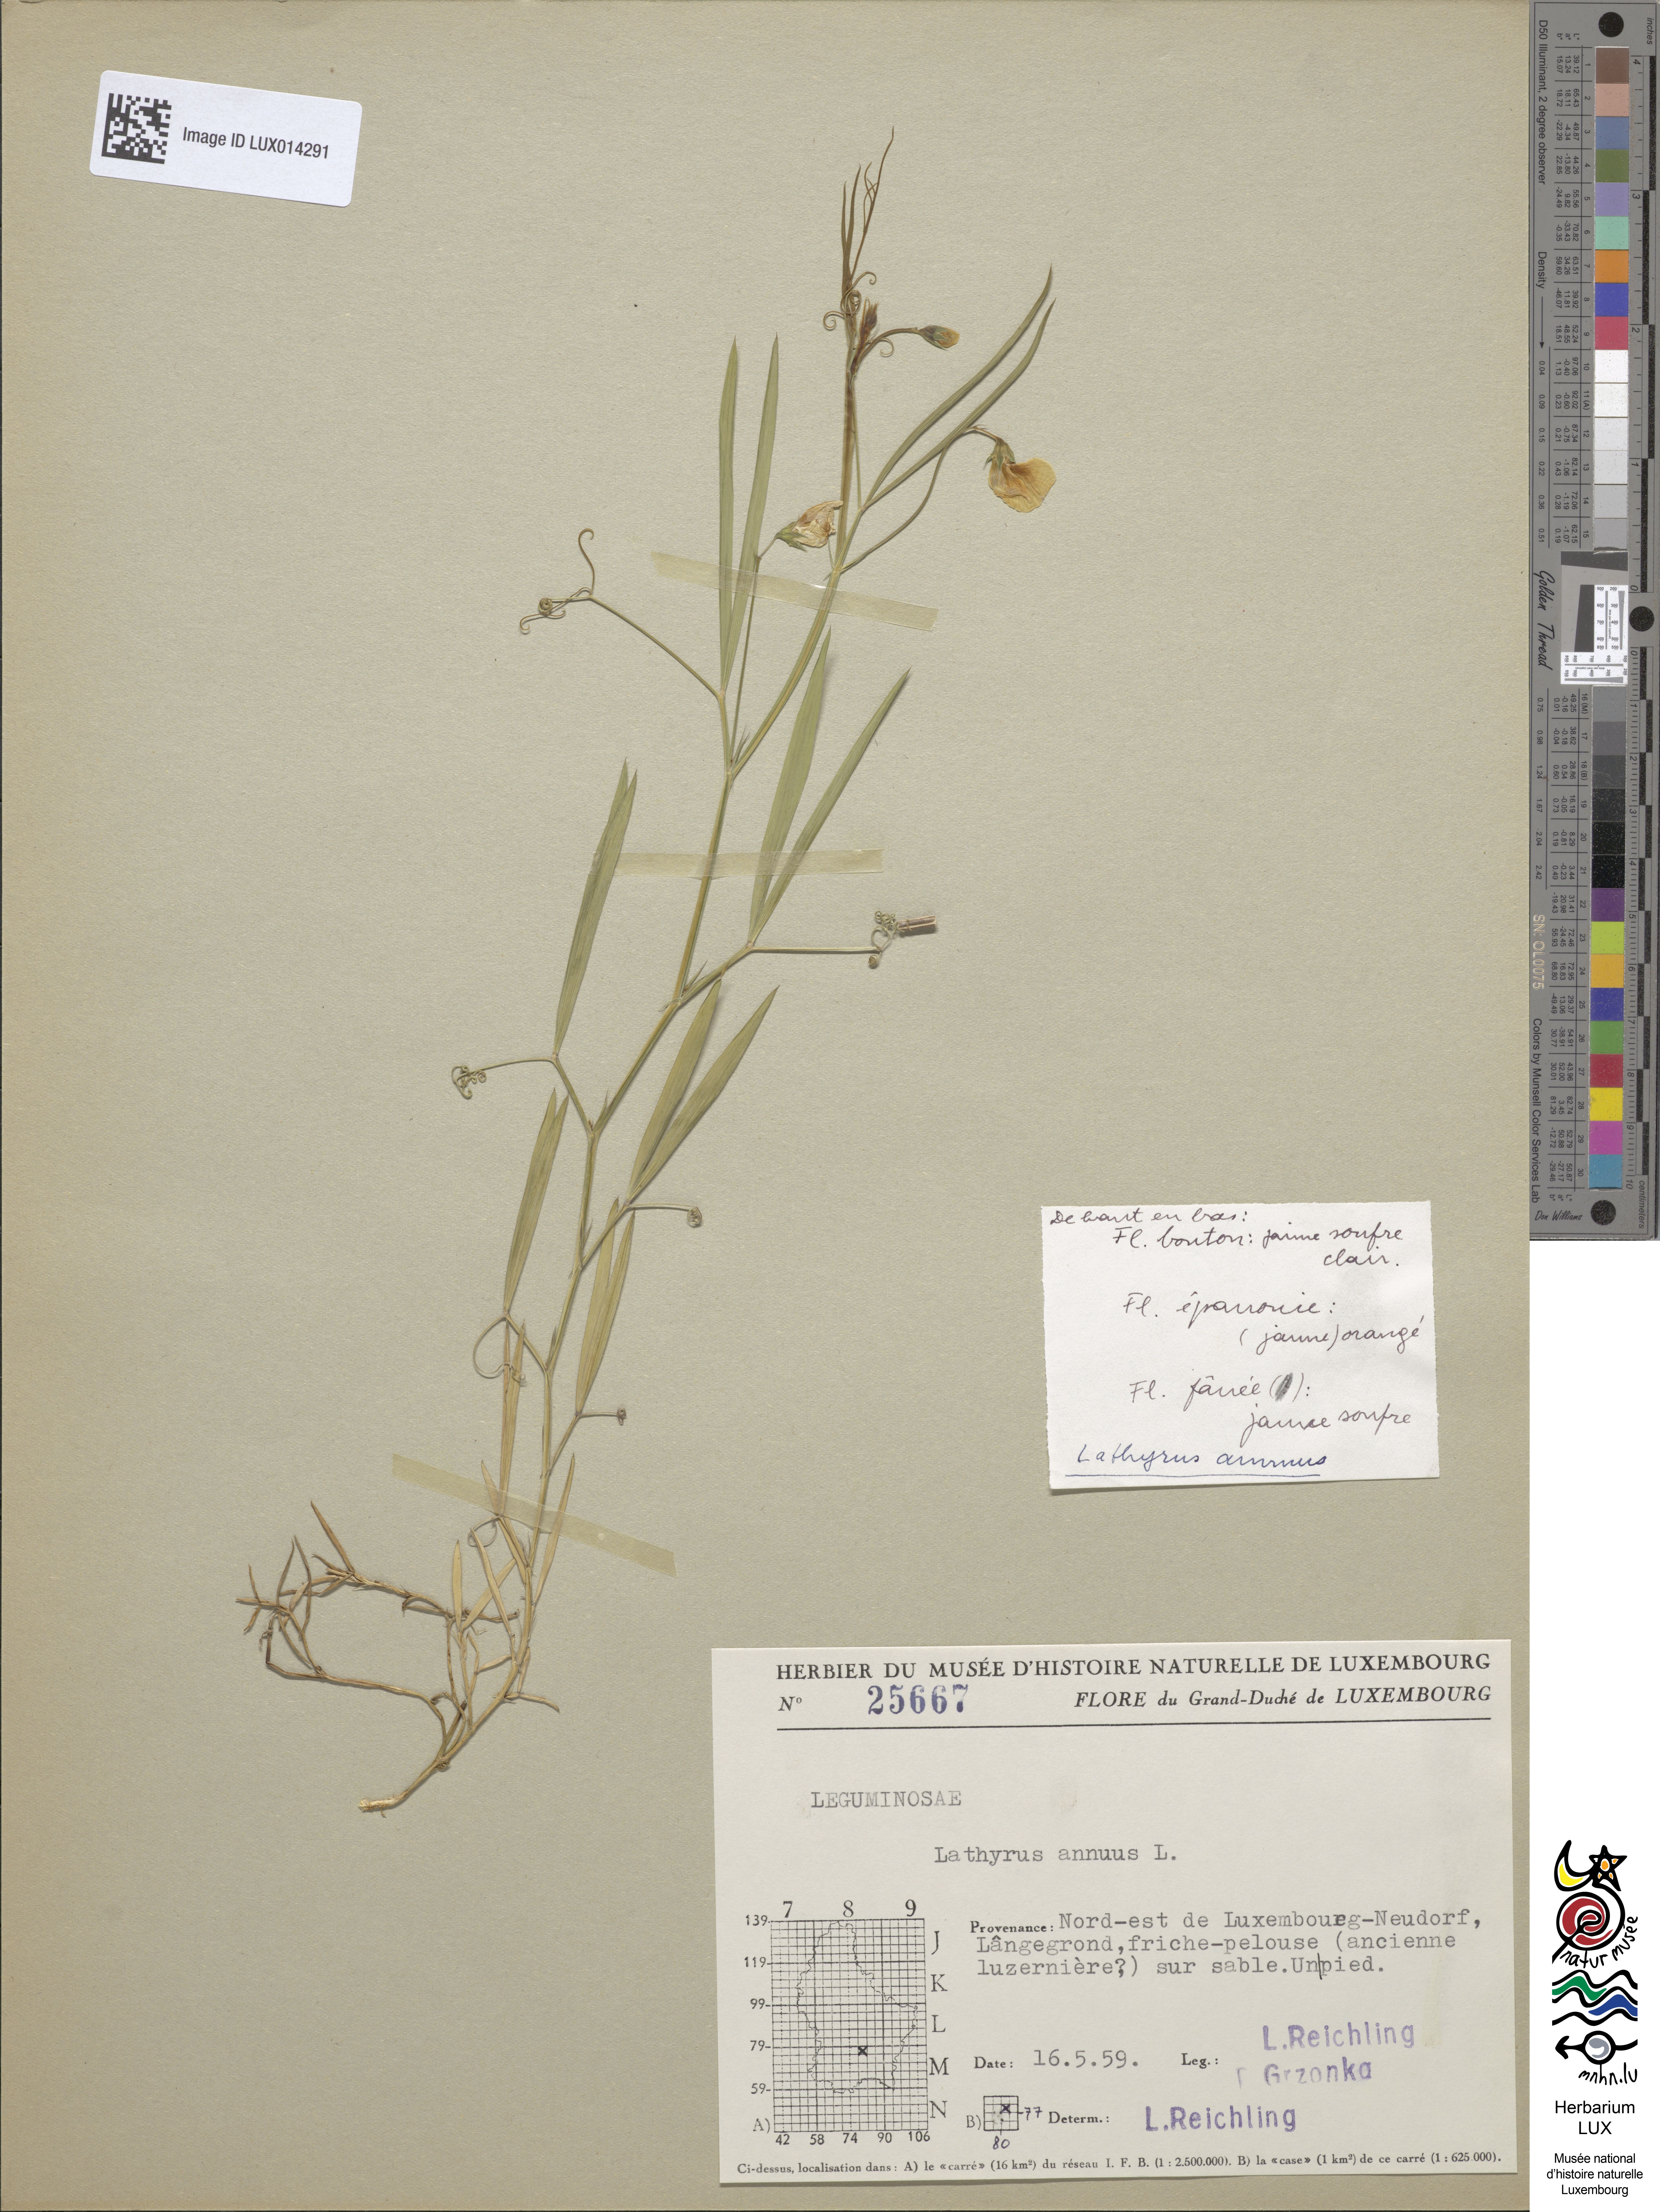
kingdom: Plantae
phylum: Tracheophyta
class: Magnoliopsida
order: Fabales
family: Fabaceae
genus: Lathyrus
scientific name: Lathyrus annuus
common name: Fodder pea
